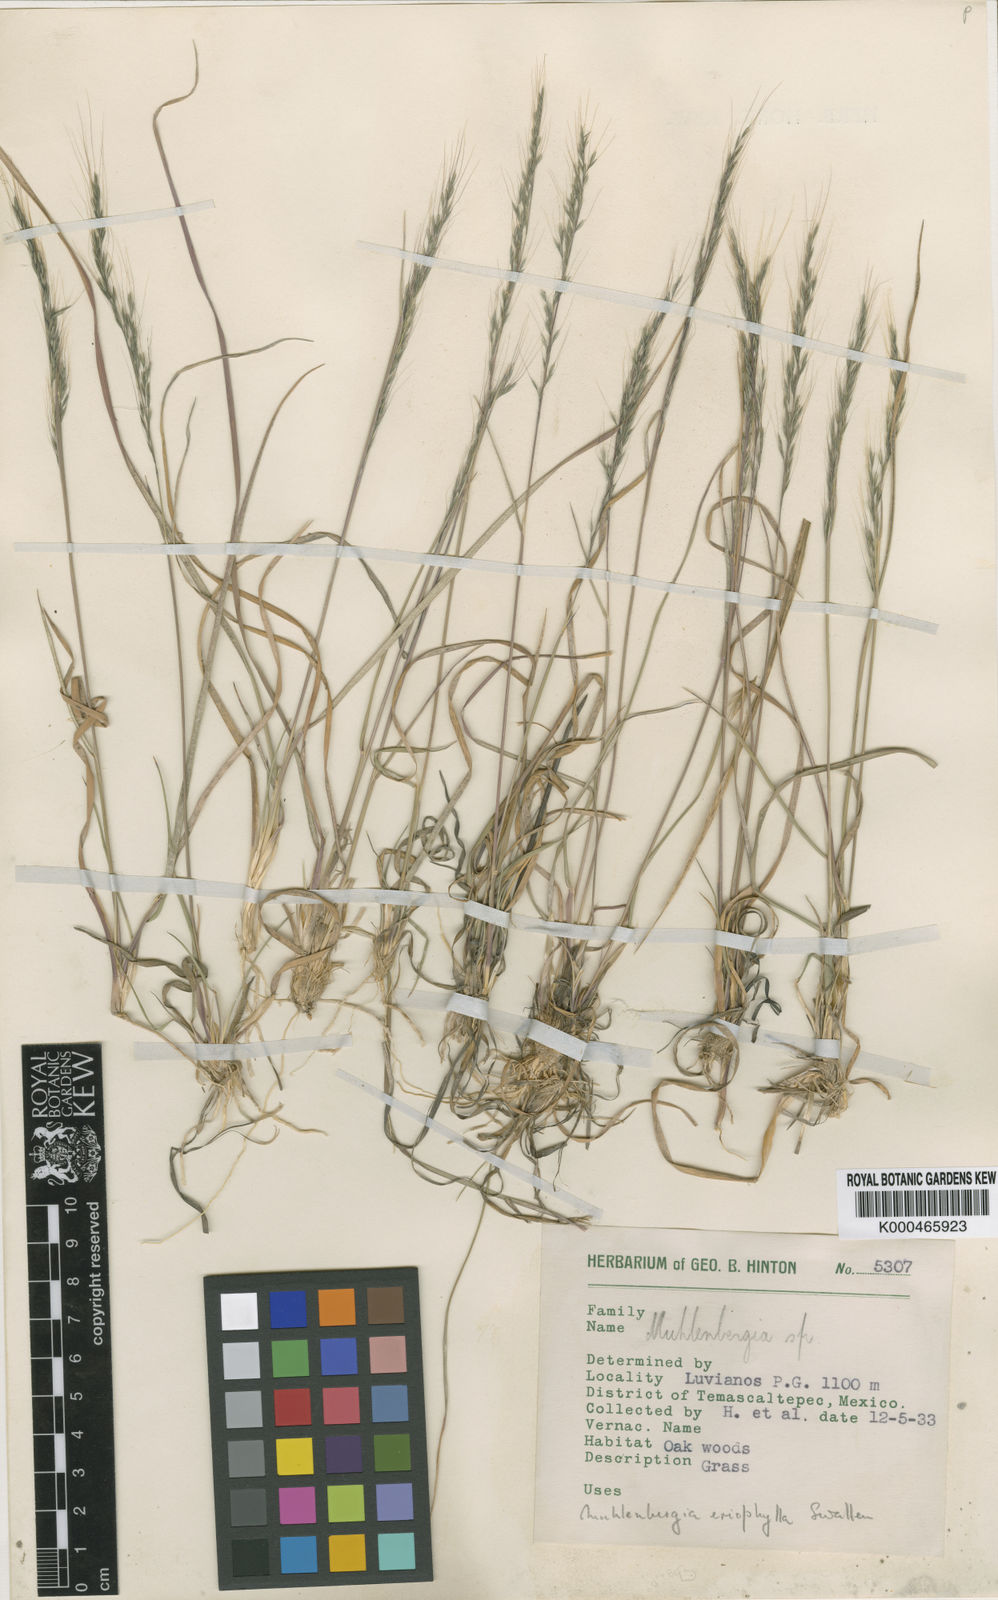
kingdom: Plantae
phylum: Tracheophyta
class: Liliopsida
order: Poales
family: Poaceae
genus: Muhlenbergia
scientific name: Muhlenbergia eriophylla
